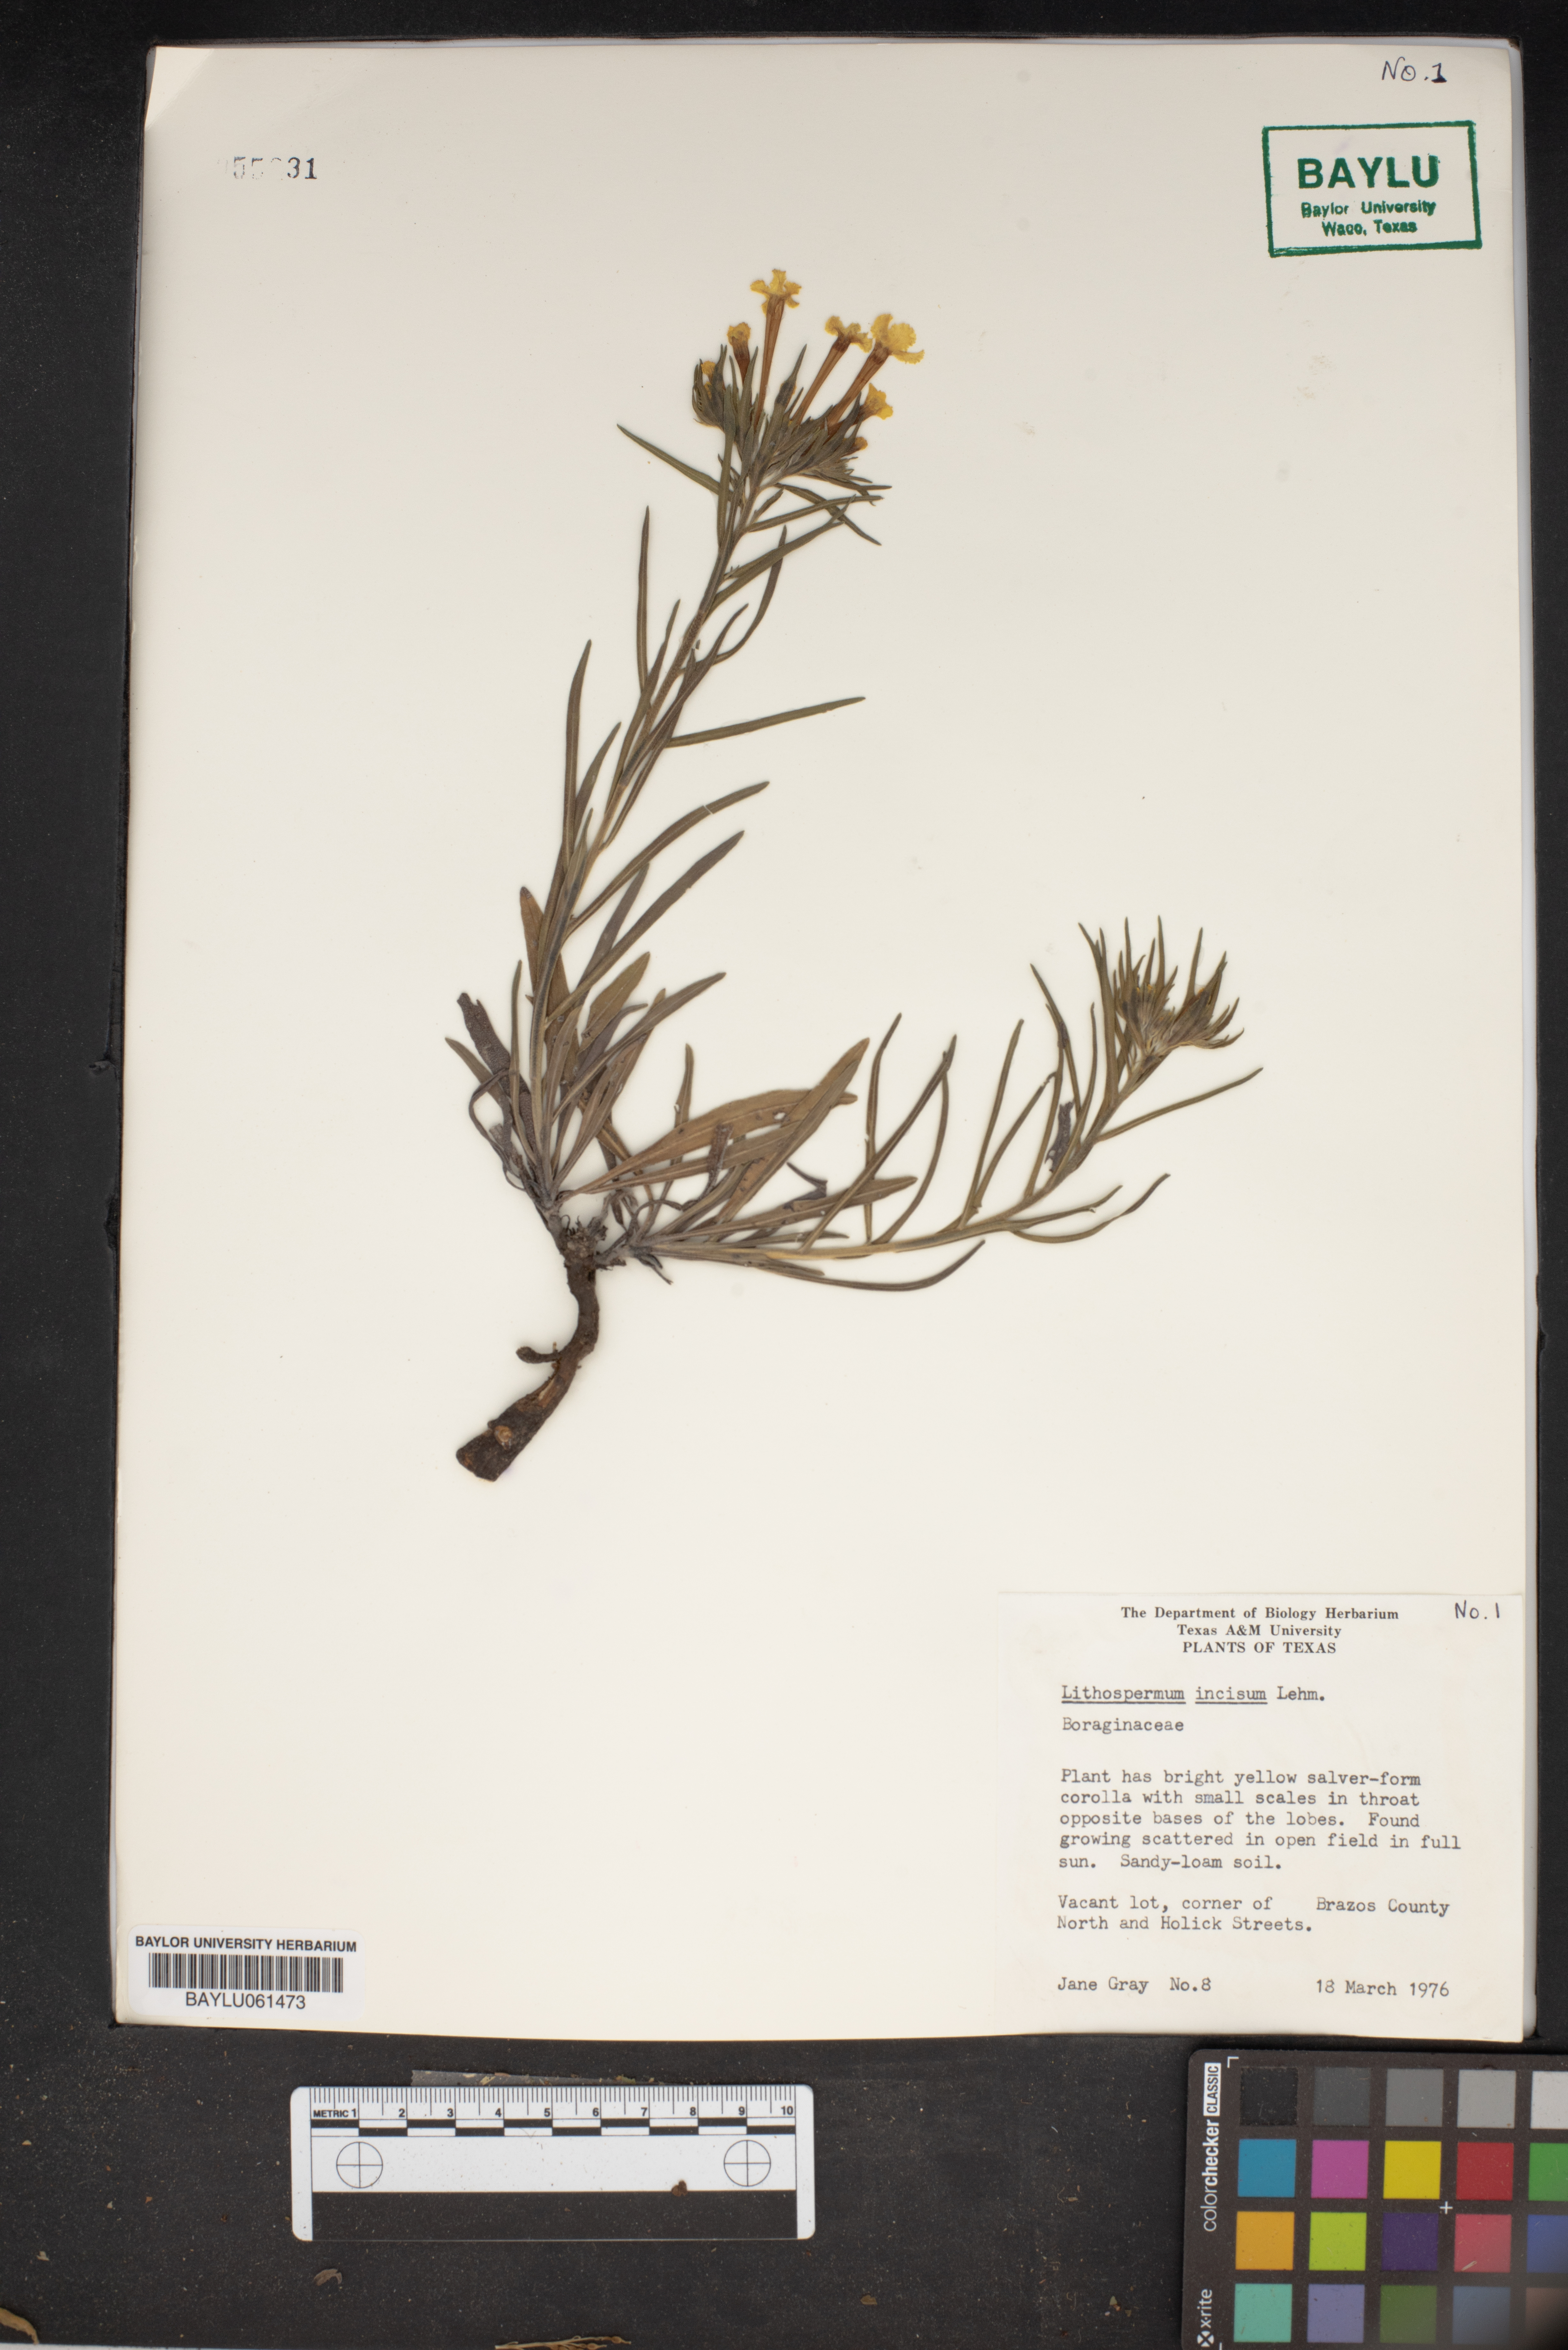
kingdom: Plantae
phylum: Tracheophyta
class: Magnoliopsida
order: Boraginales
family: Boraginaceae
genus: Lithospermum
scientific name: Lithospermum incisum
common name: Fringed gromwell
